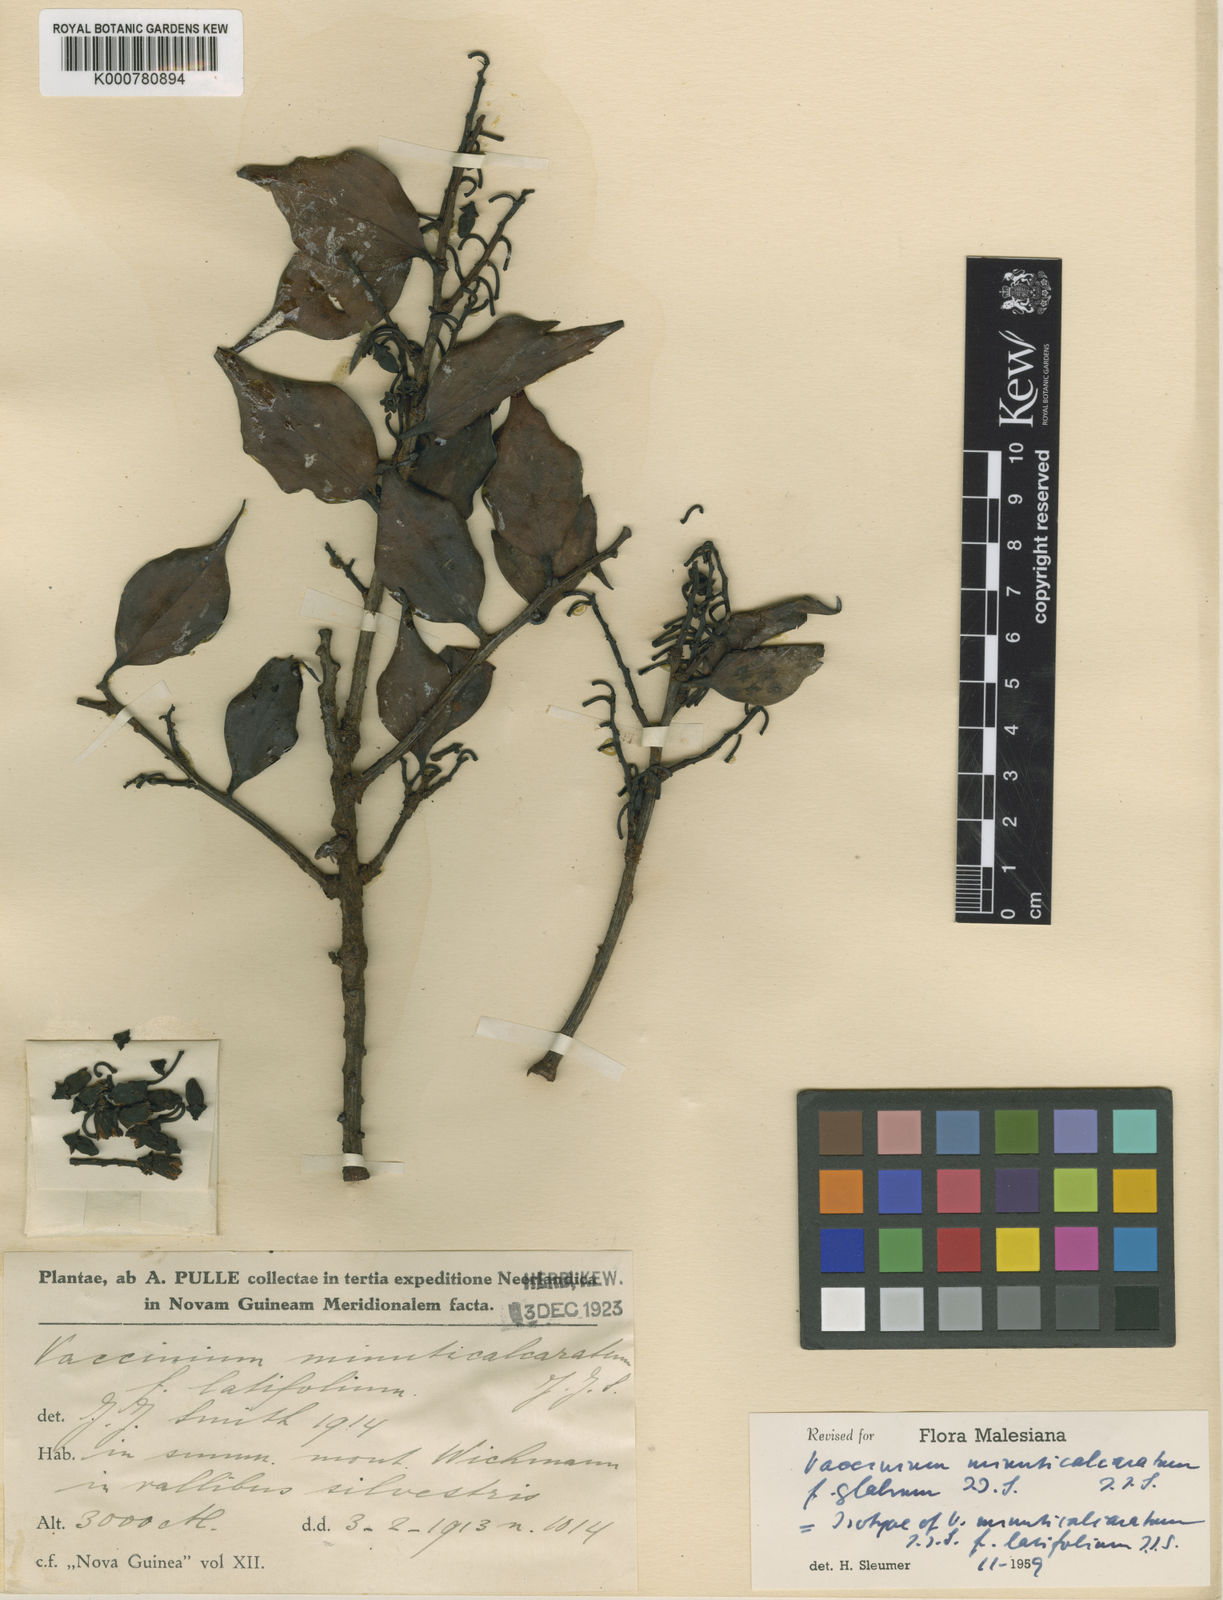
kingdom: Plantae
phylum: Tracheophyta
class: Magnoliopsida
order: Ericales
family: Ericaceae
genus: Vaccinium
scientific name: Vaccinium minuticalcaratum
